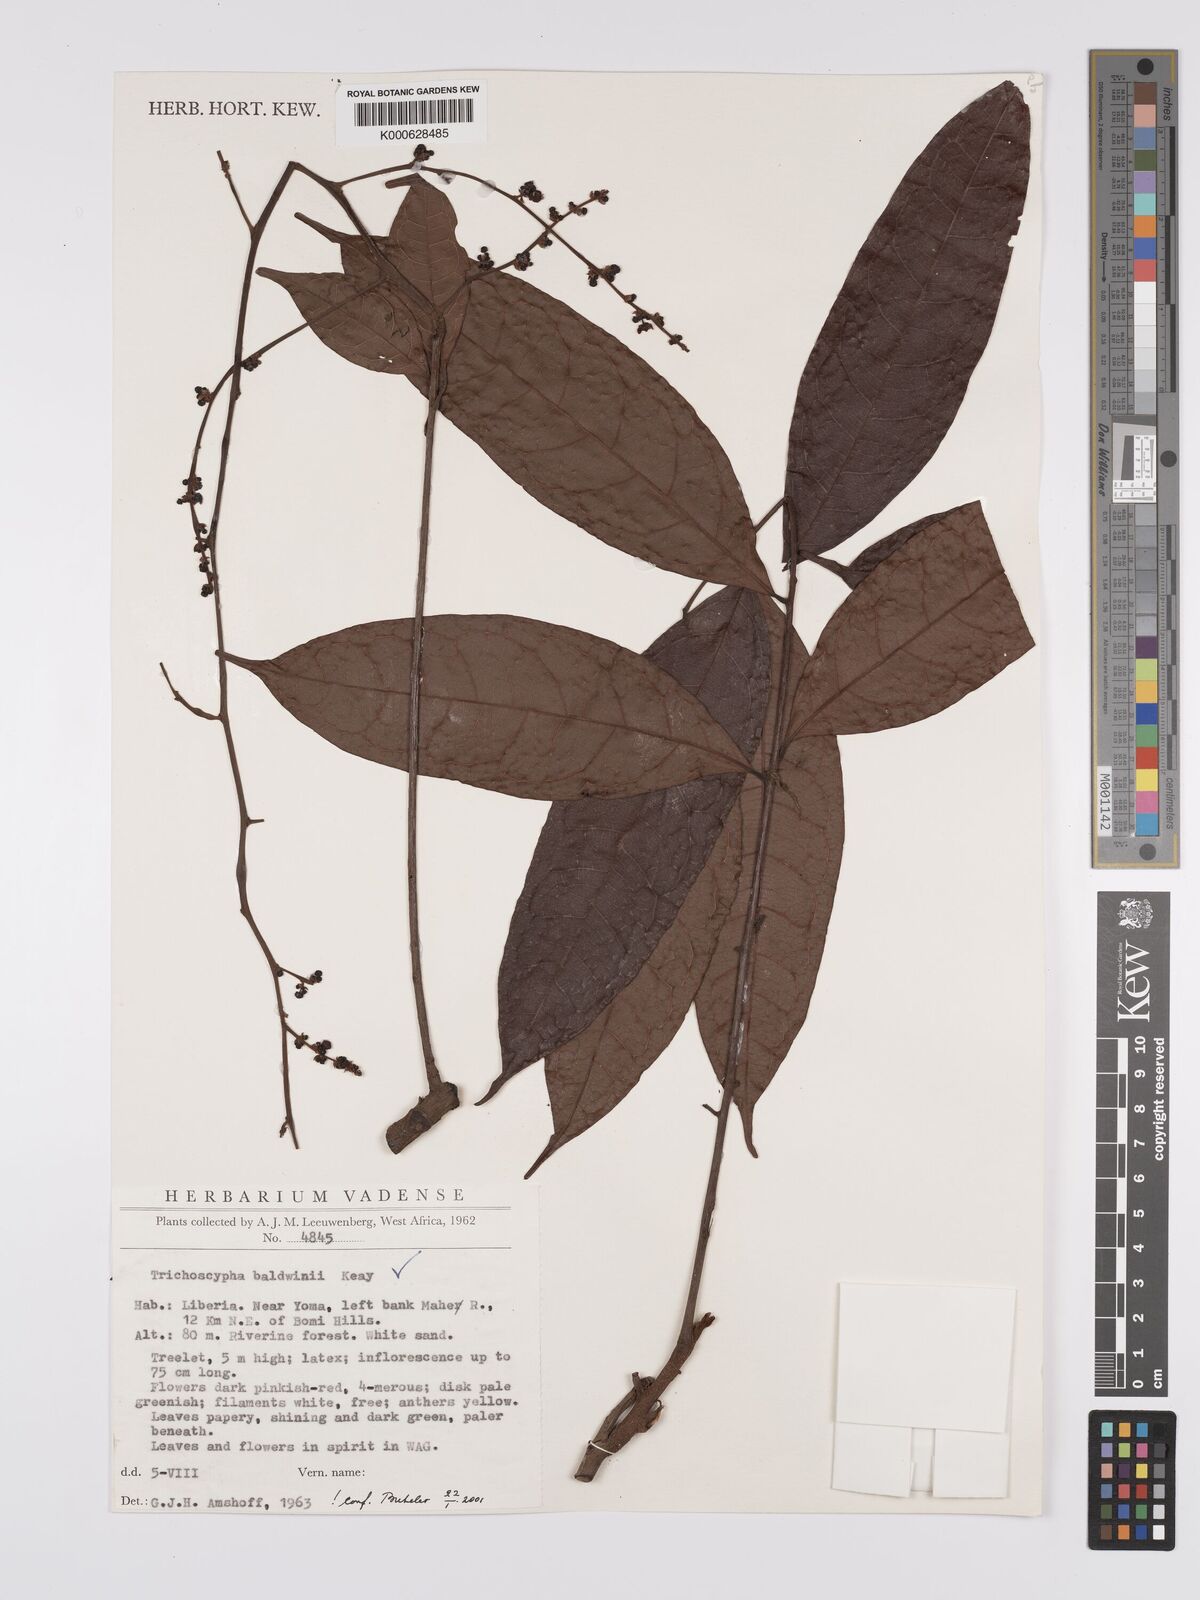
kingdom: Plantae
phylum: Tracheophyta
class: Magnoliopsida
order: Sapindales
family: Anacardiaceae
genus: Trichoscypha
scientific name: Trichoscypha baldwinii
